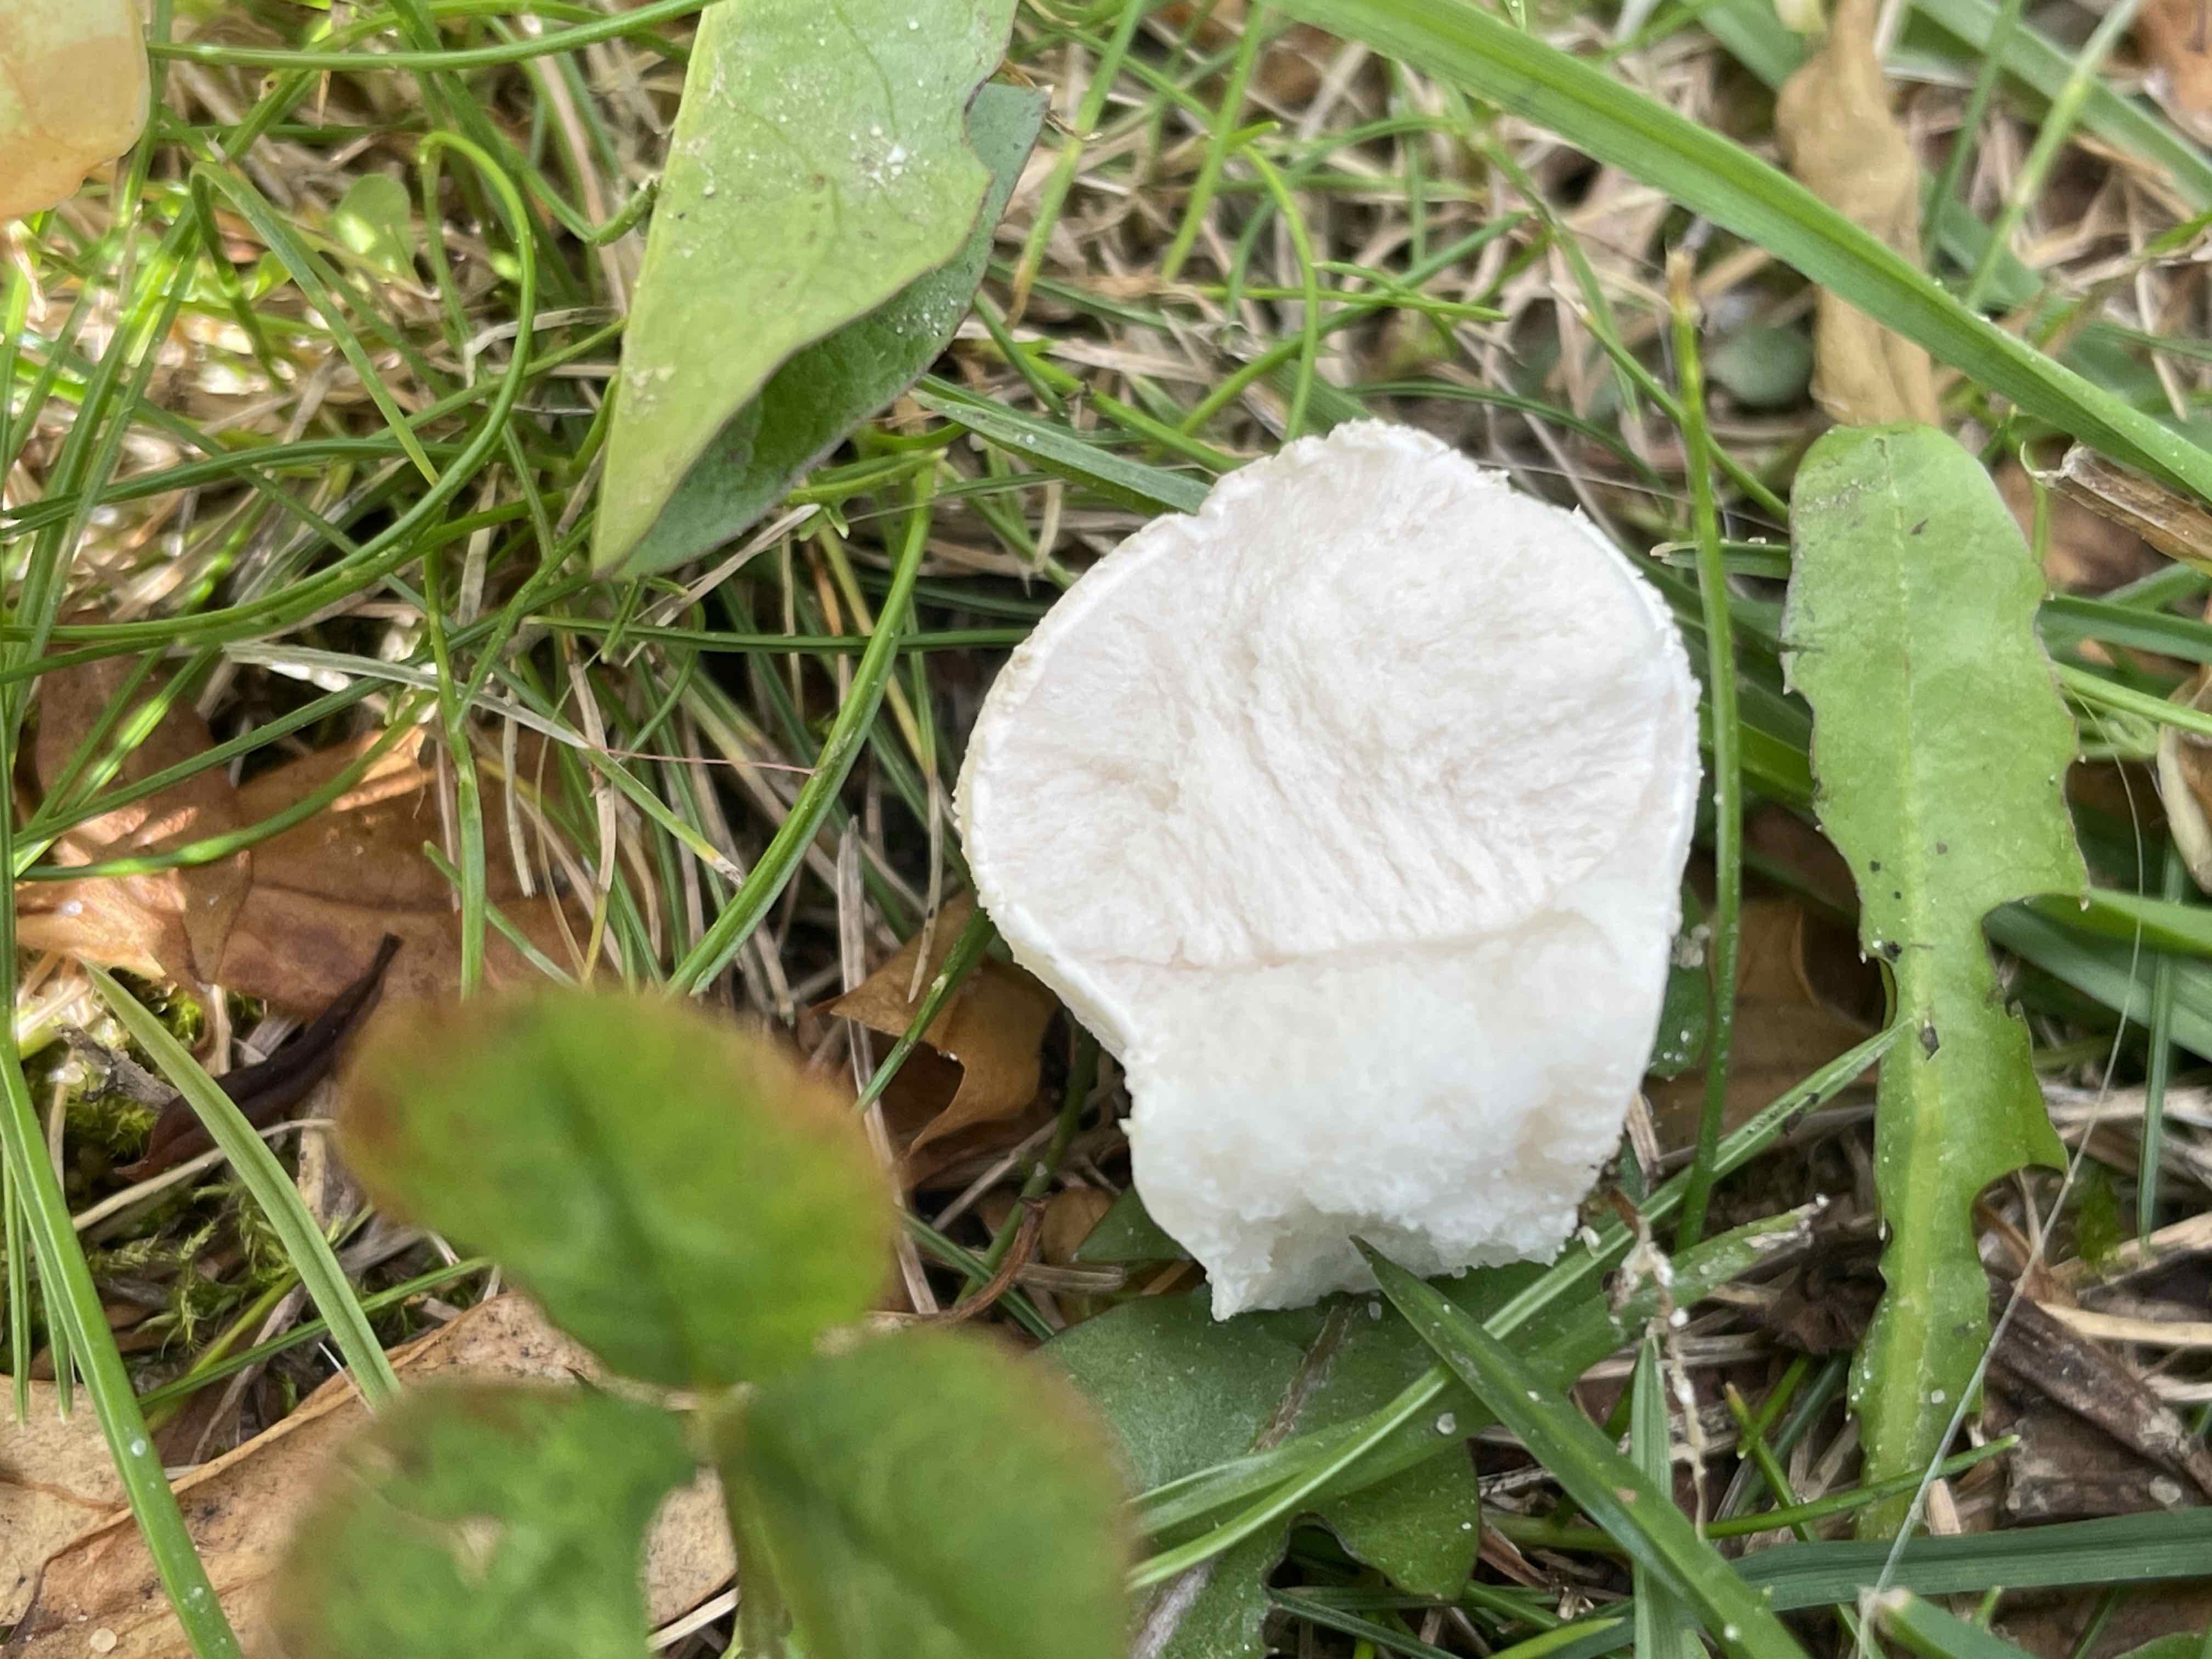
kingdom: Fungi
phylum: Basidiomycota
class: Agaricomycetes
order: Agaricales
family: Lycoperdaceae
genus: Lycoperdon
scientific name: Lycoperdon pratense
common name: flad støvbold
